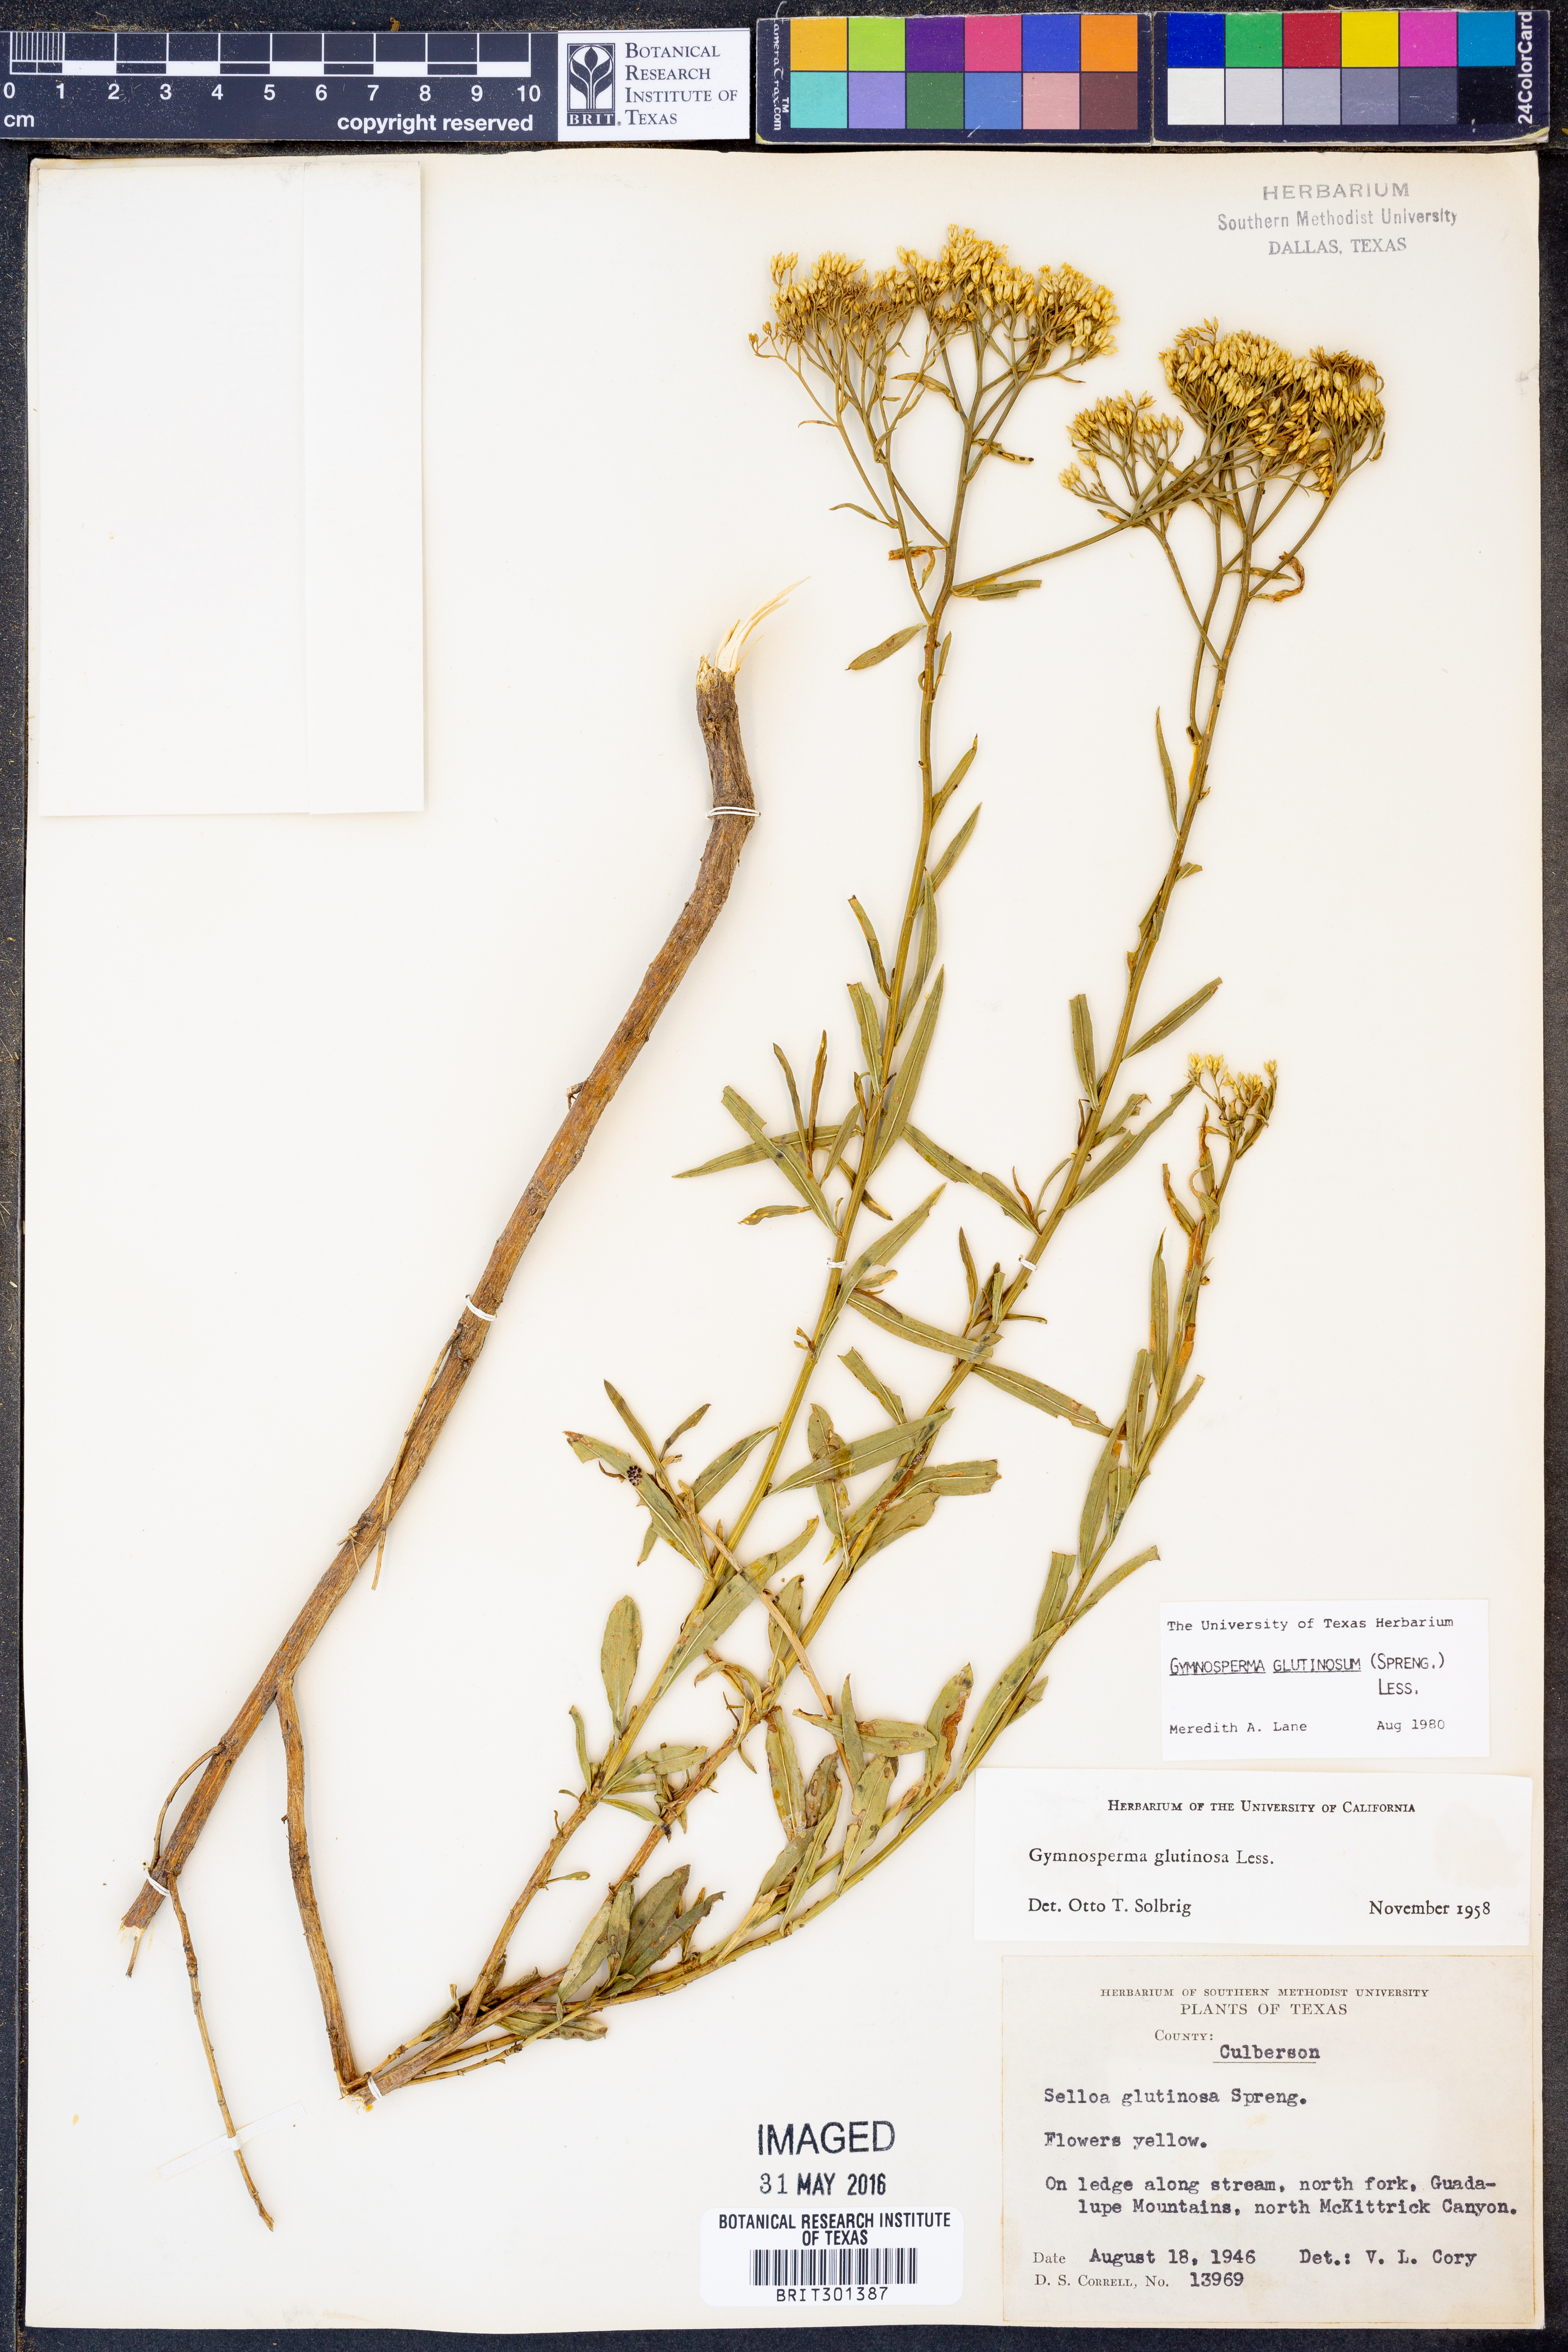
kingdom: Plantae
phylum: Tracheophyta
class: Magnoliopsida
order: Asterales
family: Asteraceae
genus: Gymnosperma
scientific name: Gymnosperma glutinosum
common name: Gumhead
